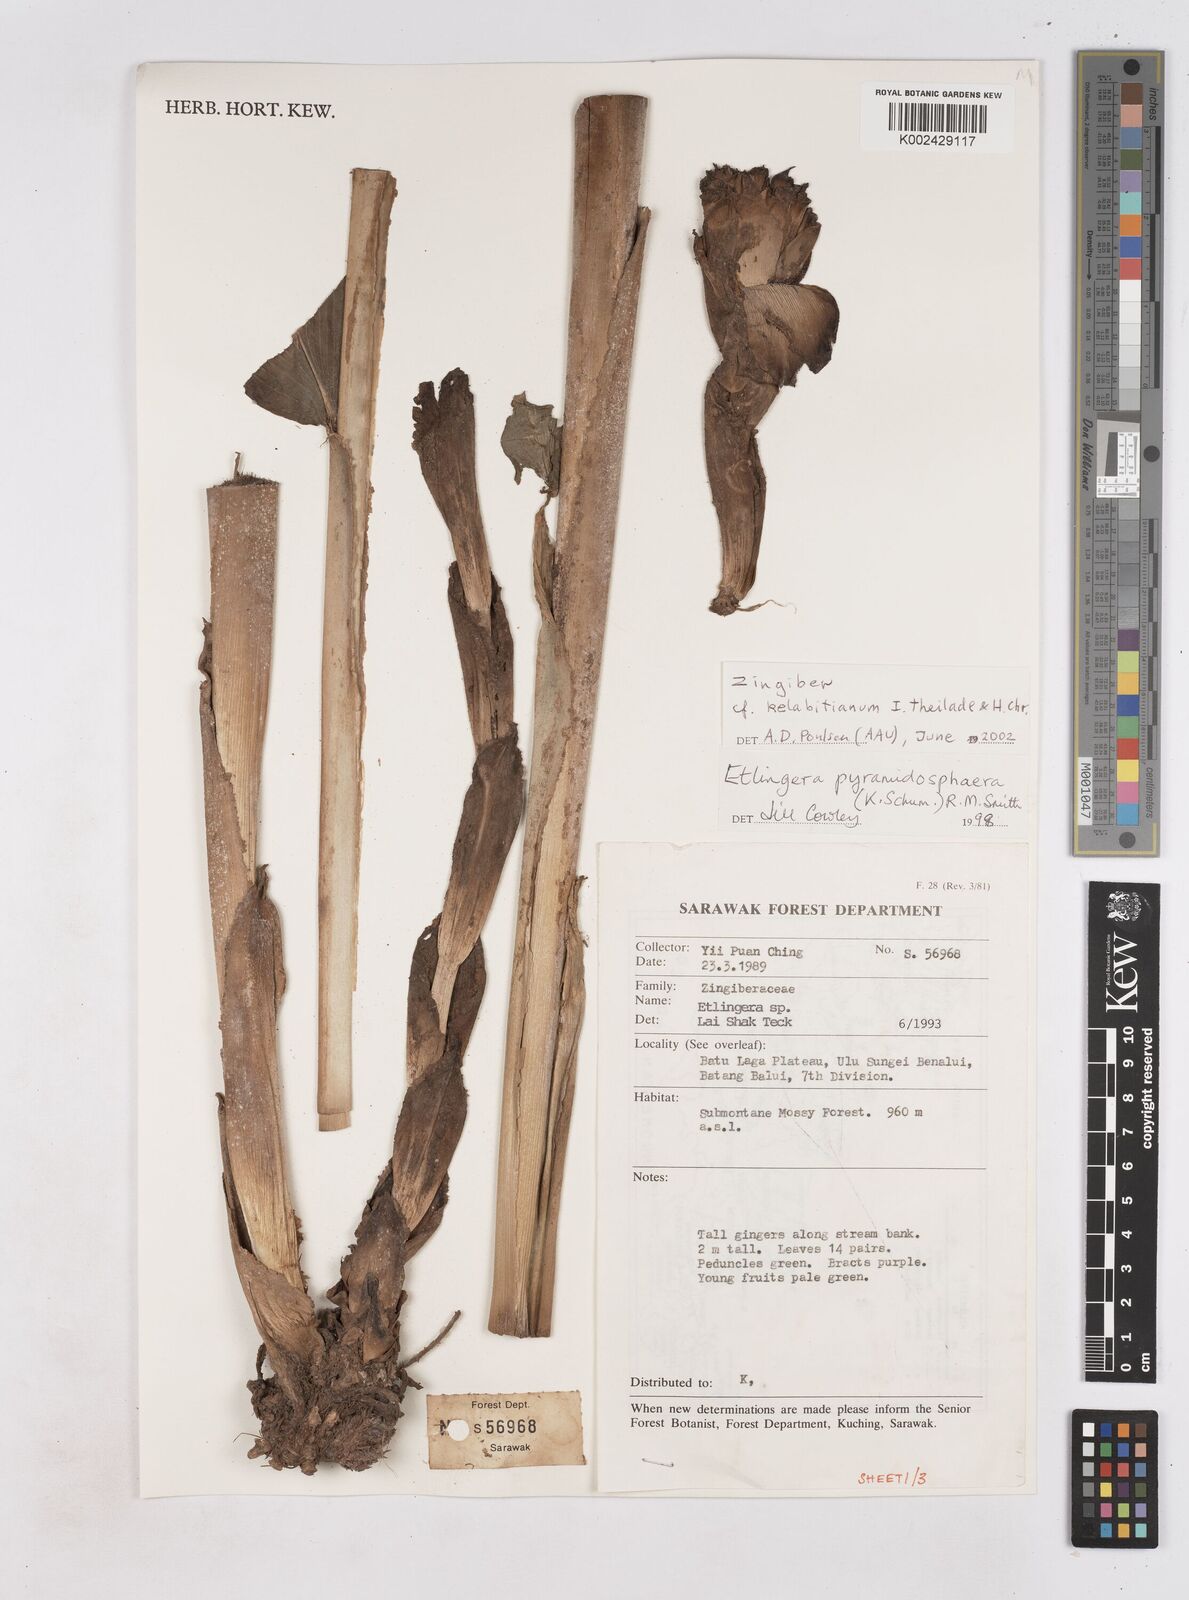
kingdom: Plantae
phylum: Tracheophyta
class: Liliopsida
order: Zingiberales
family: Zingiberaceae
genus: Zingiber
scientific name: Zingiber kelabitianum
